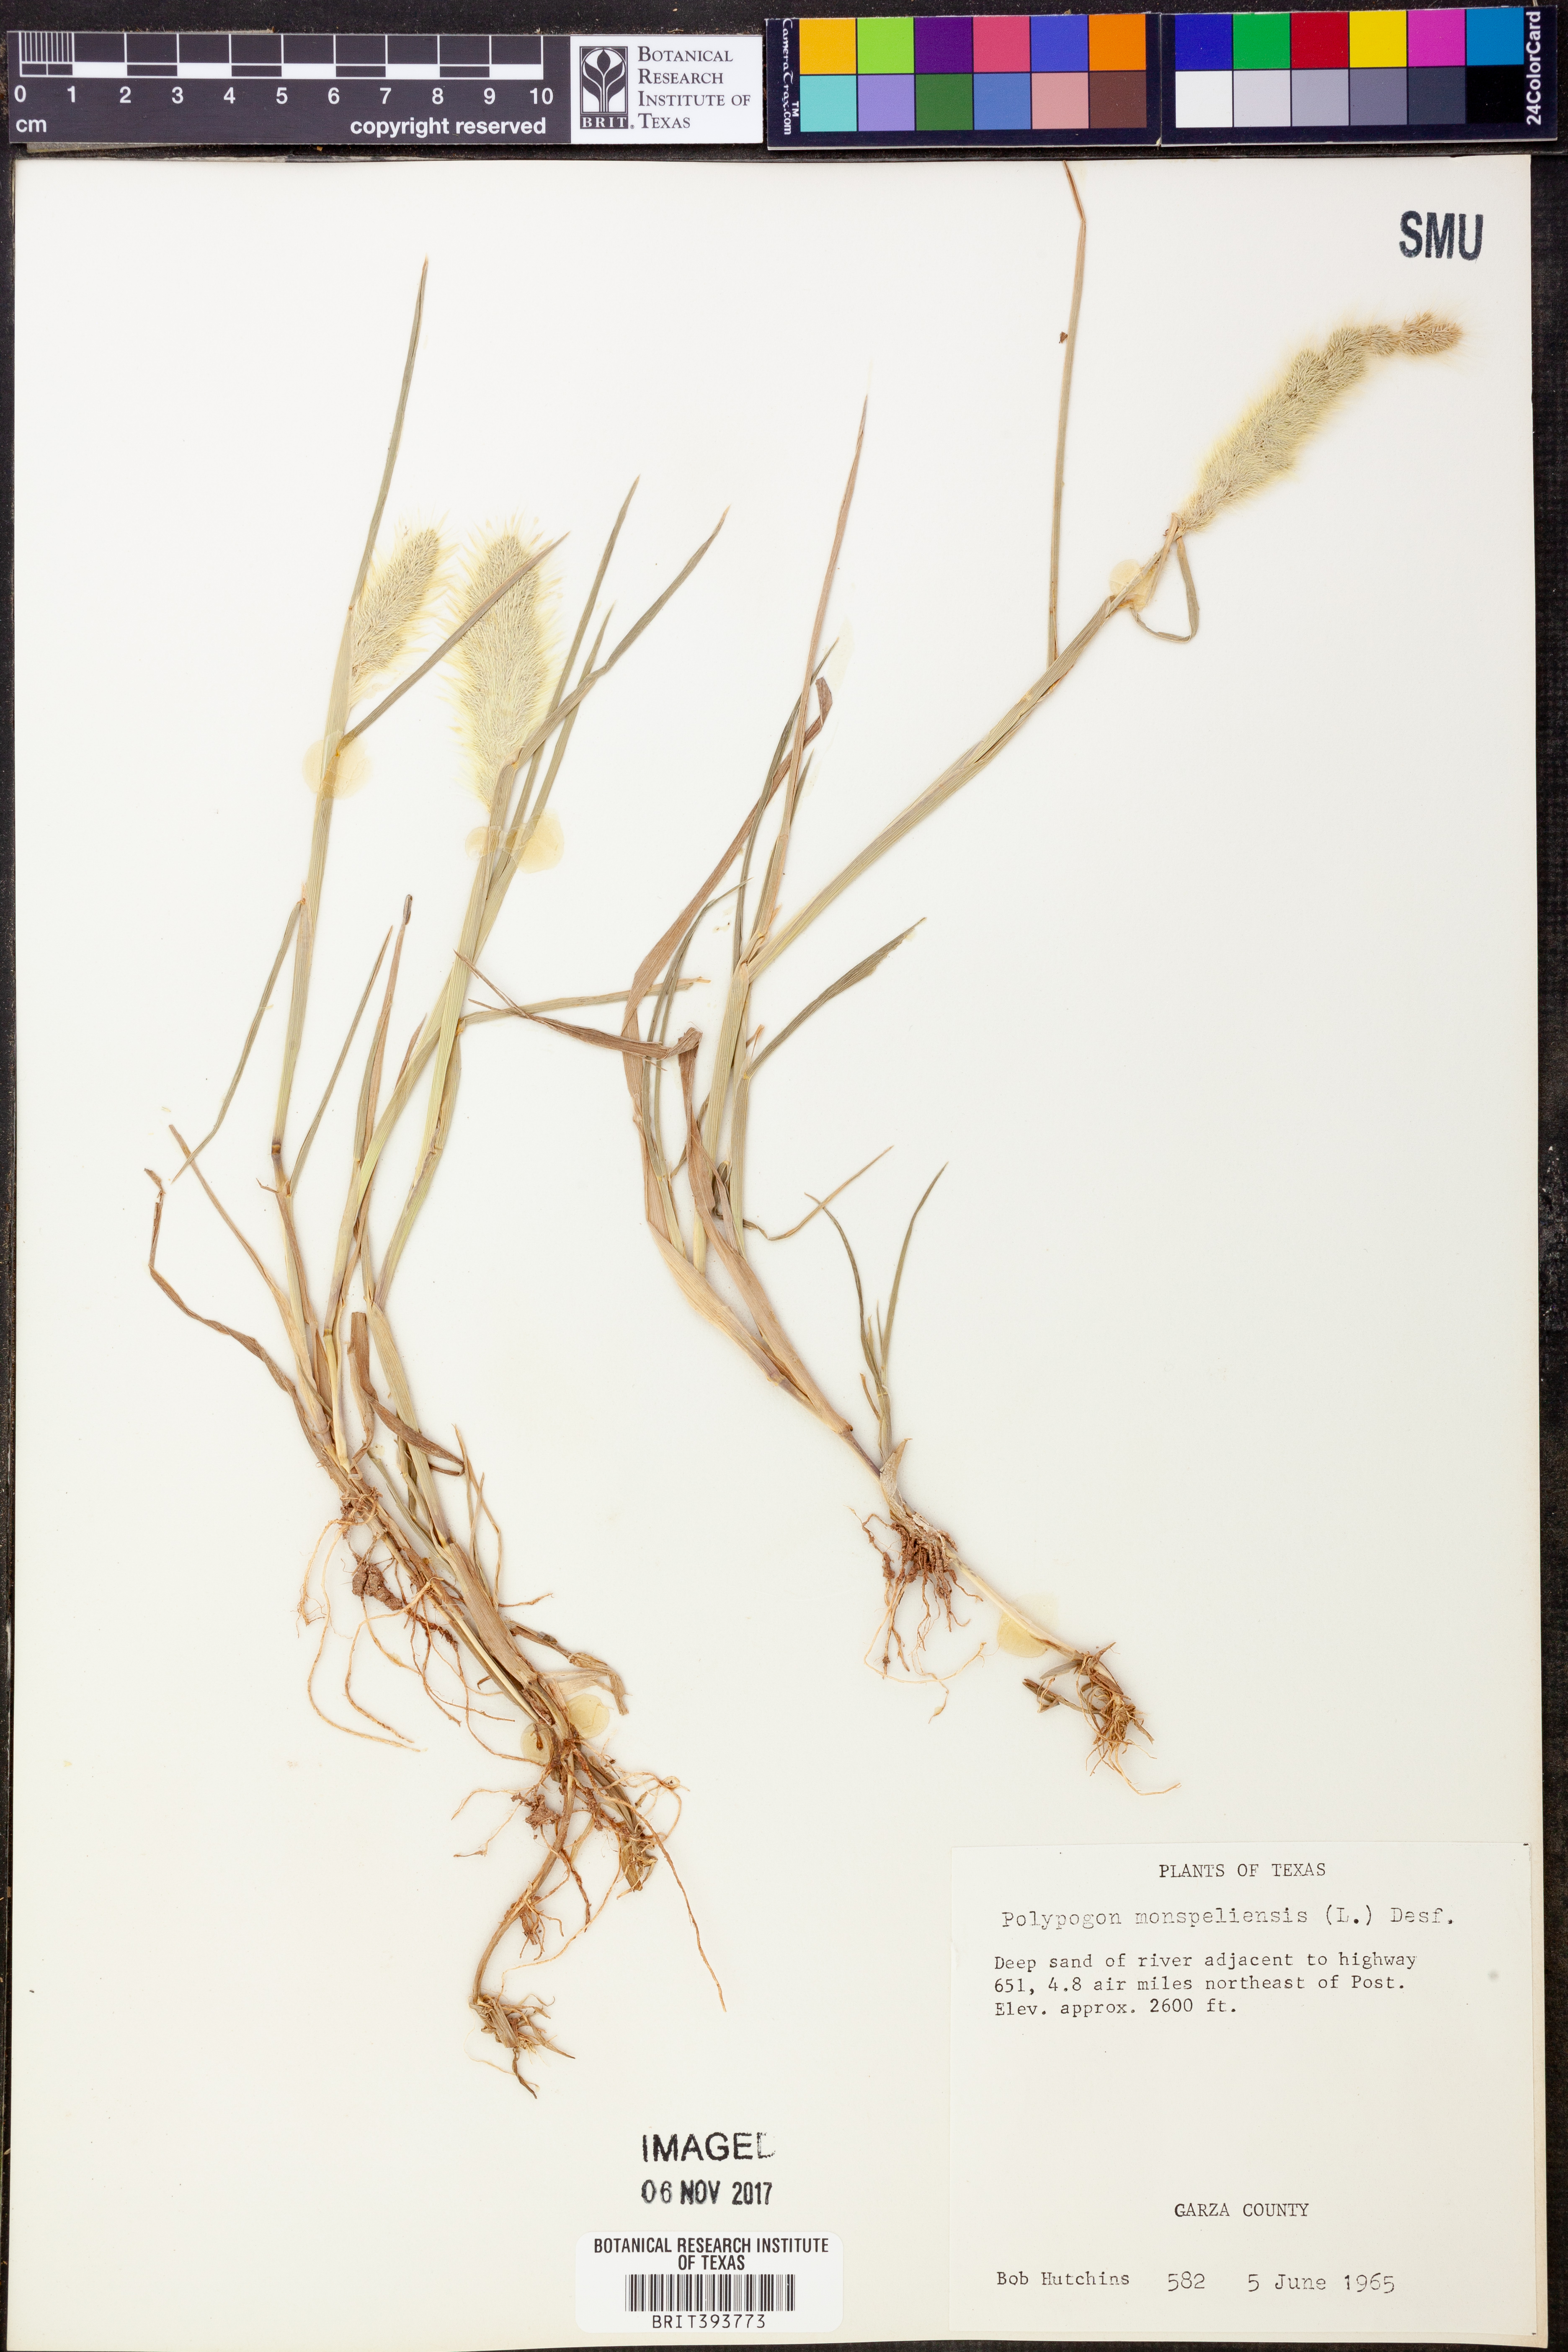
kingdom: Plantae
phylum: Tracheophyta
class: Liliopsida
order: Poales
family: Poaceae
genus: Polypogon
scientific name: Polypogon monspeliensis
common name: Annual rabbitsfoot grass
